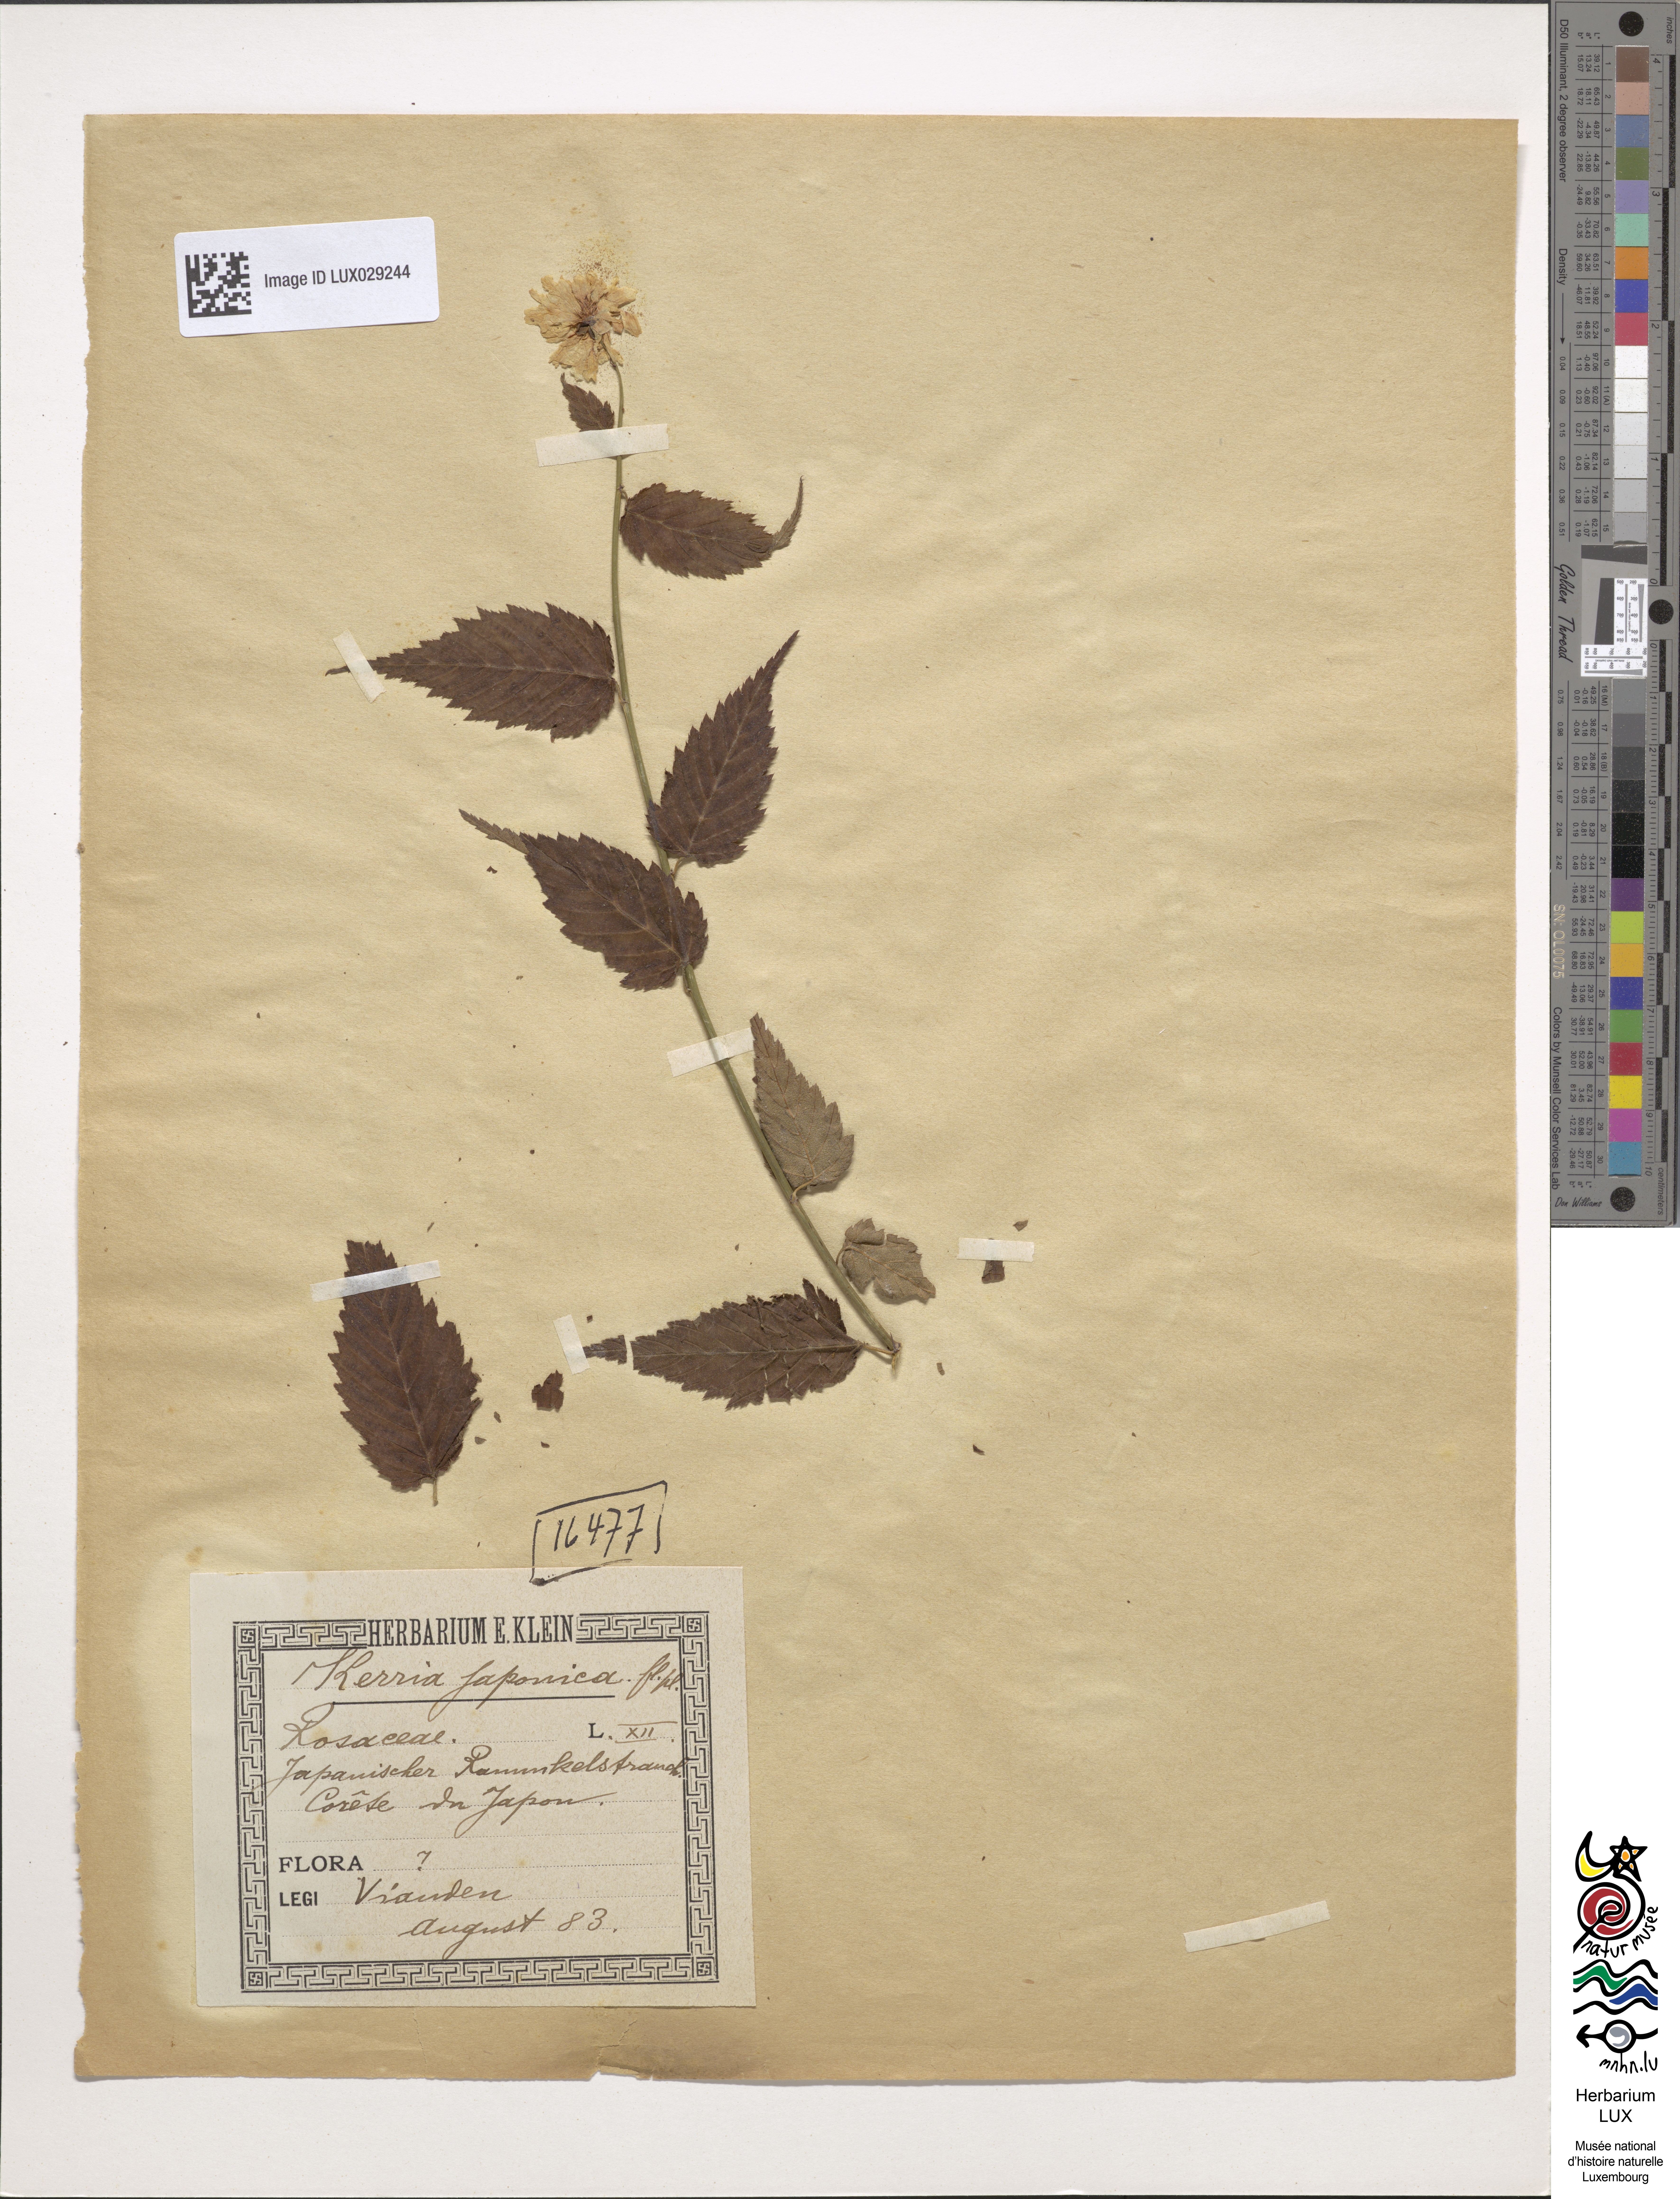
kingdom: Plantae
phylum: Tracheophyta
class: Magnoliopsida
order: Rosales
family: Rosaceae
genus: Kerria
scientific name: Kerria japonica
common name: Japanese kerria
